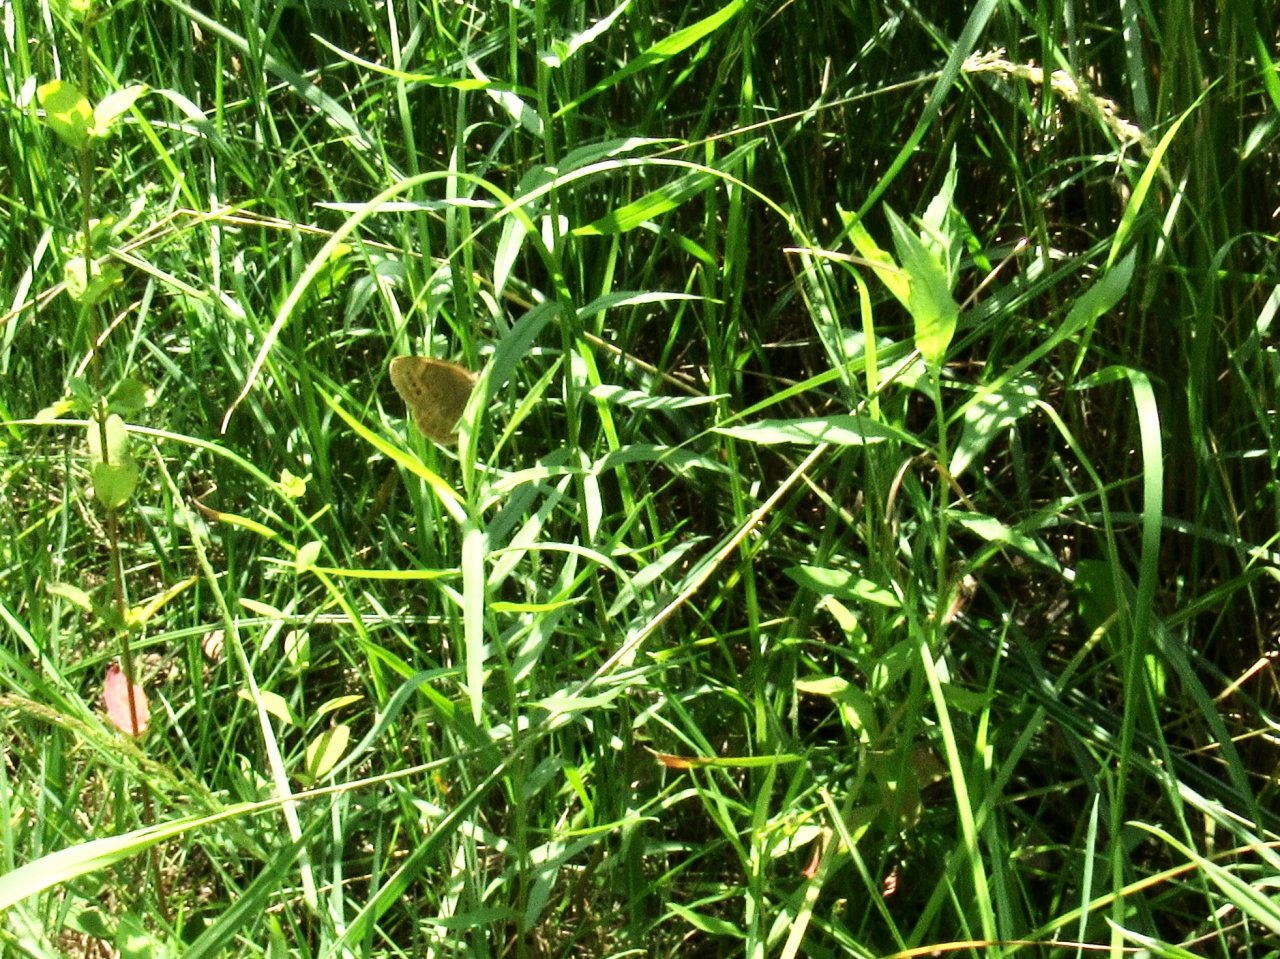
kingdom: Animalia
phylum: Arthropoda
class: Insecta
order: Lepidoptera
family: Nymphalidae
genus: Lethe
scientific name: Lethe
